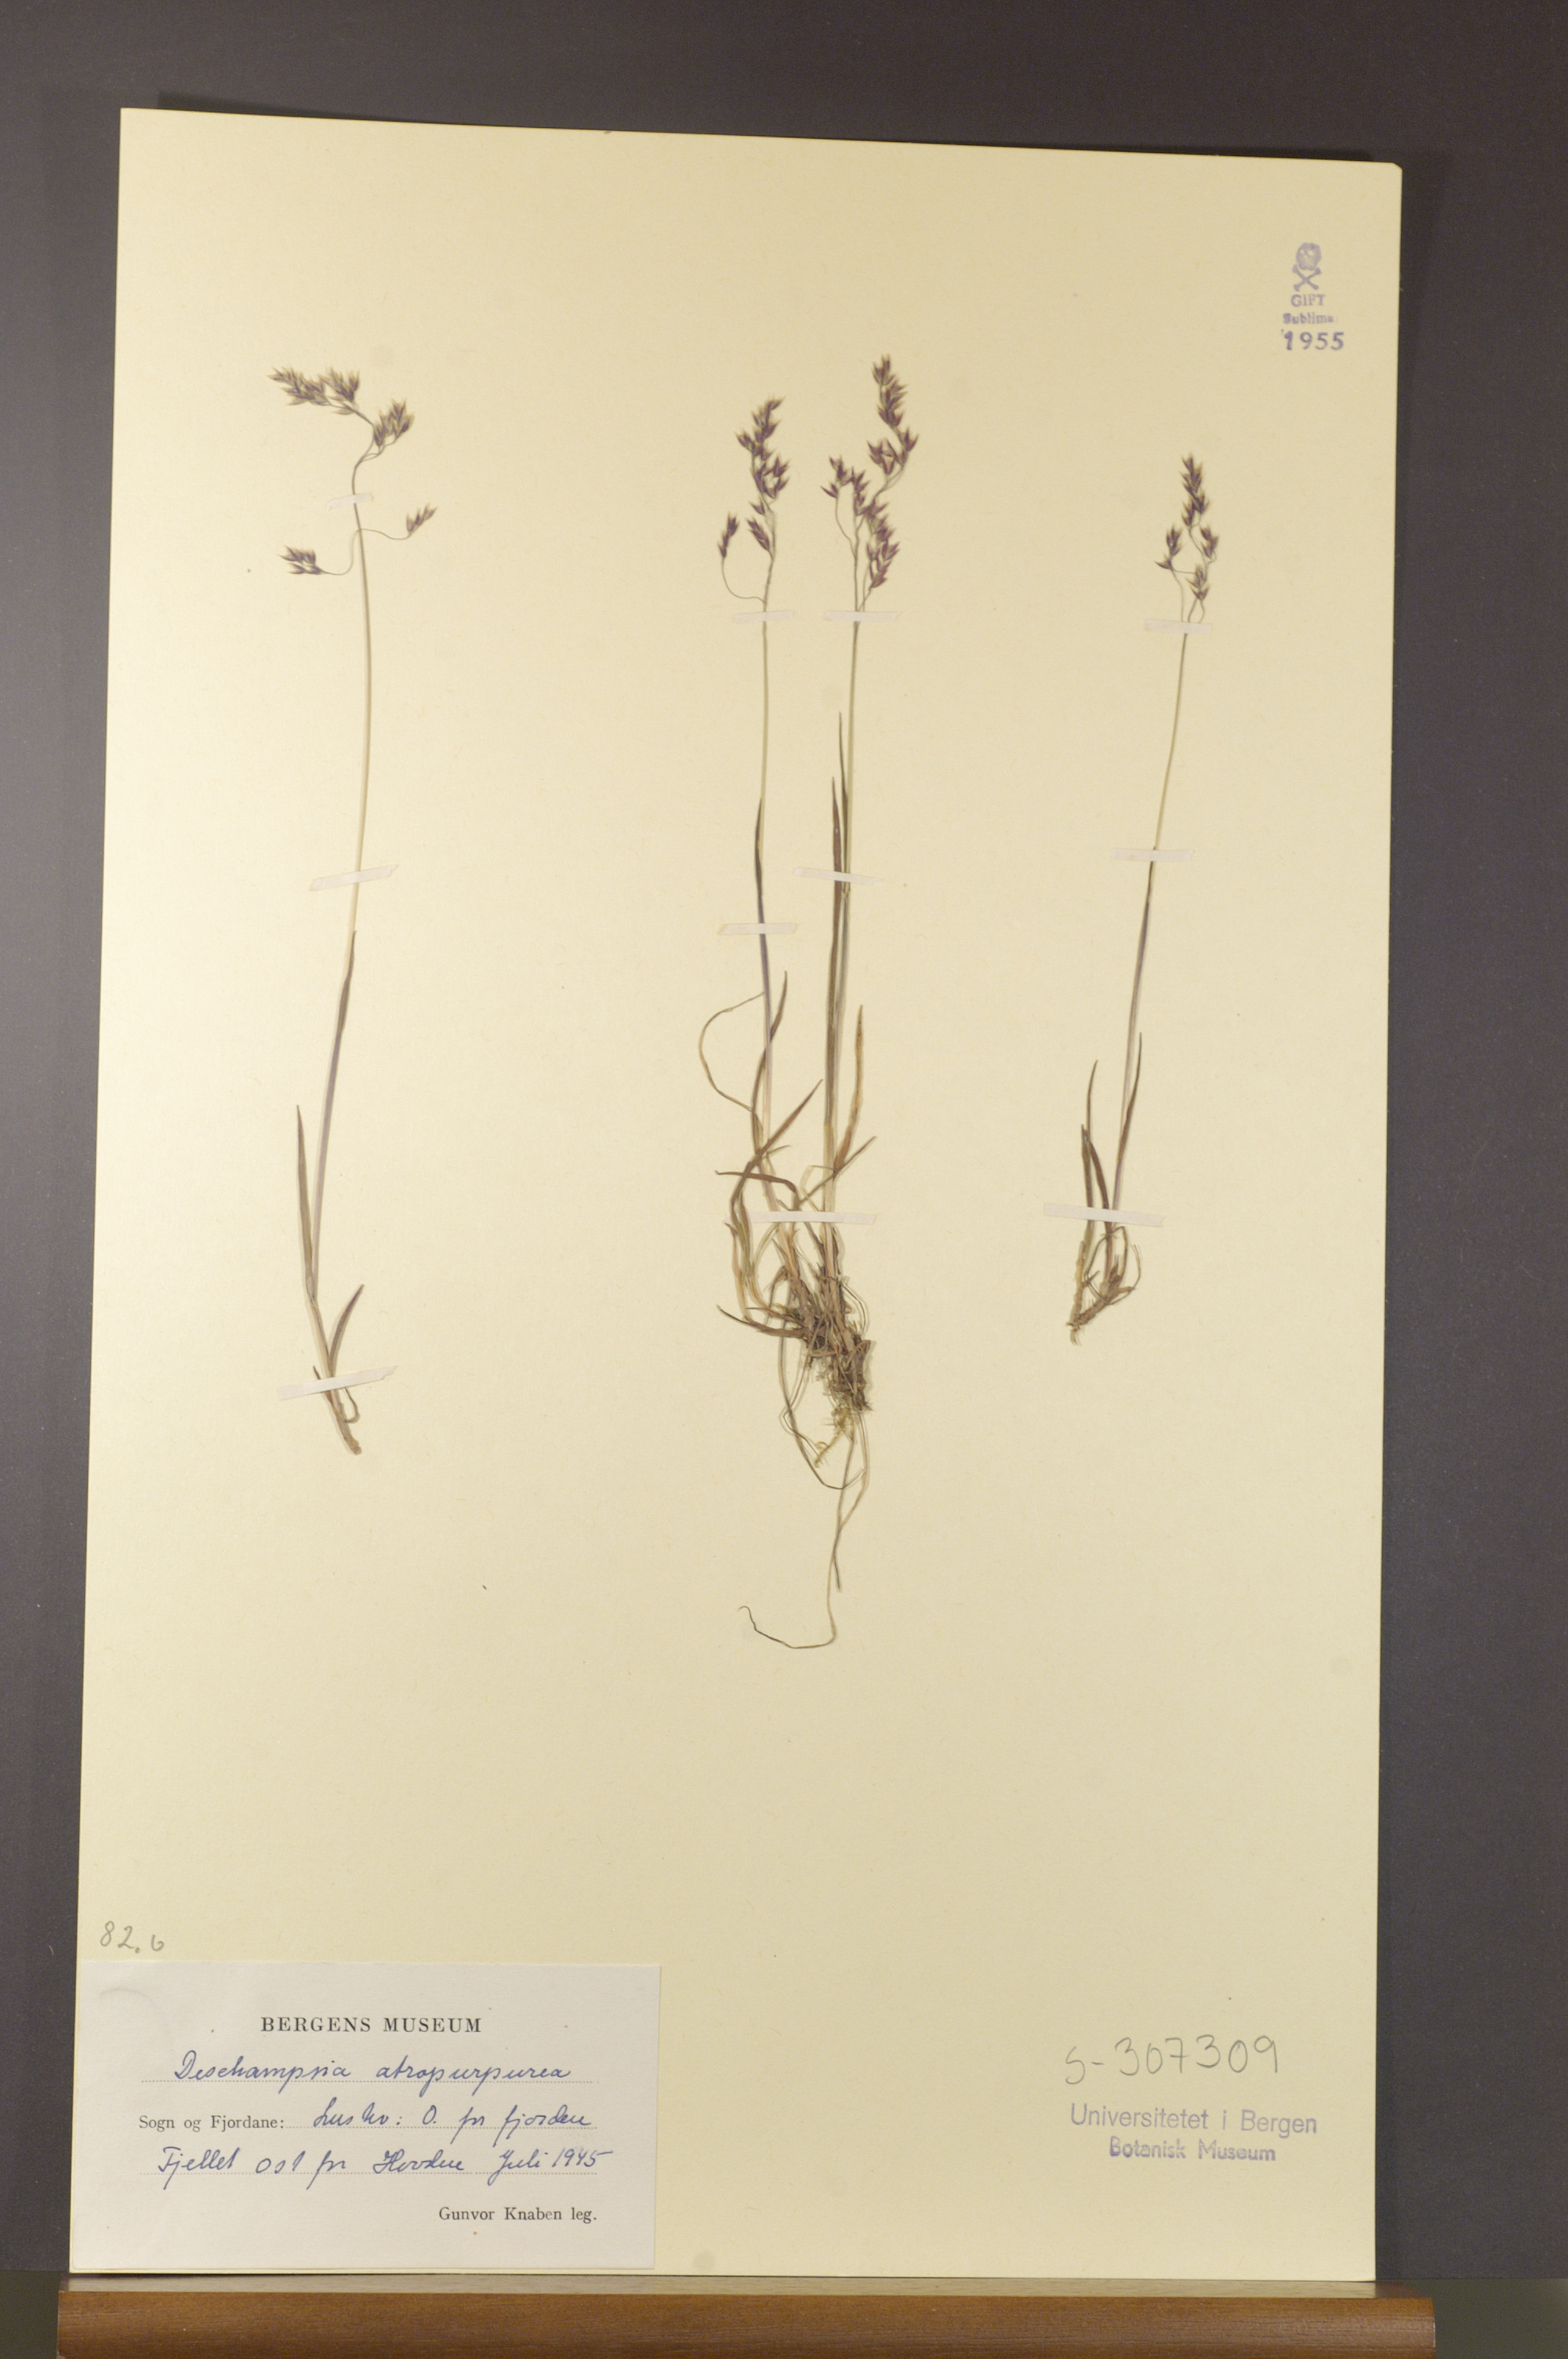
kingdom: Plantae
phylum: Tracheophyta
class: Liliopsida
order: Poales
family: Poaceae
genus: Vahlodea
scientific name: Vahlodea atropurpurea
